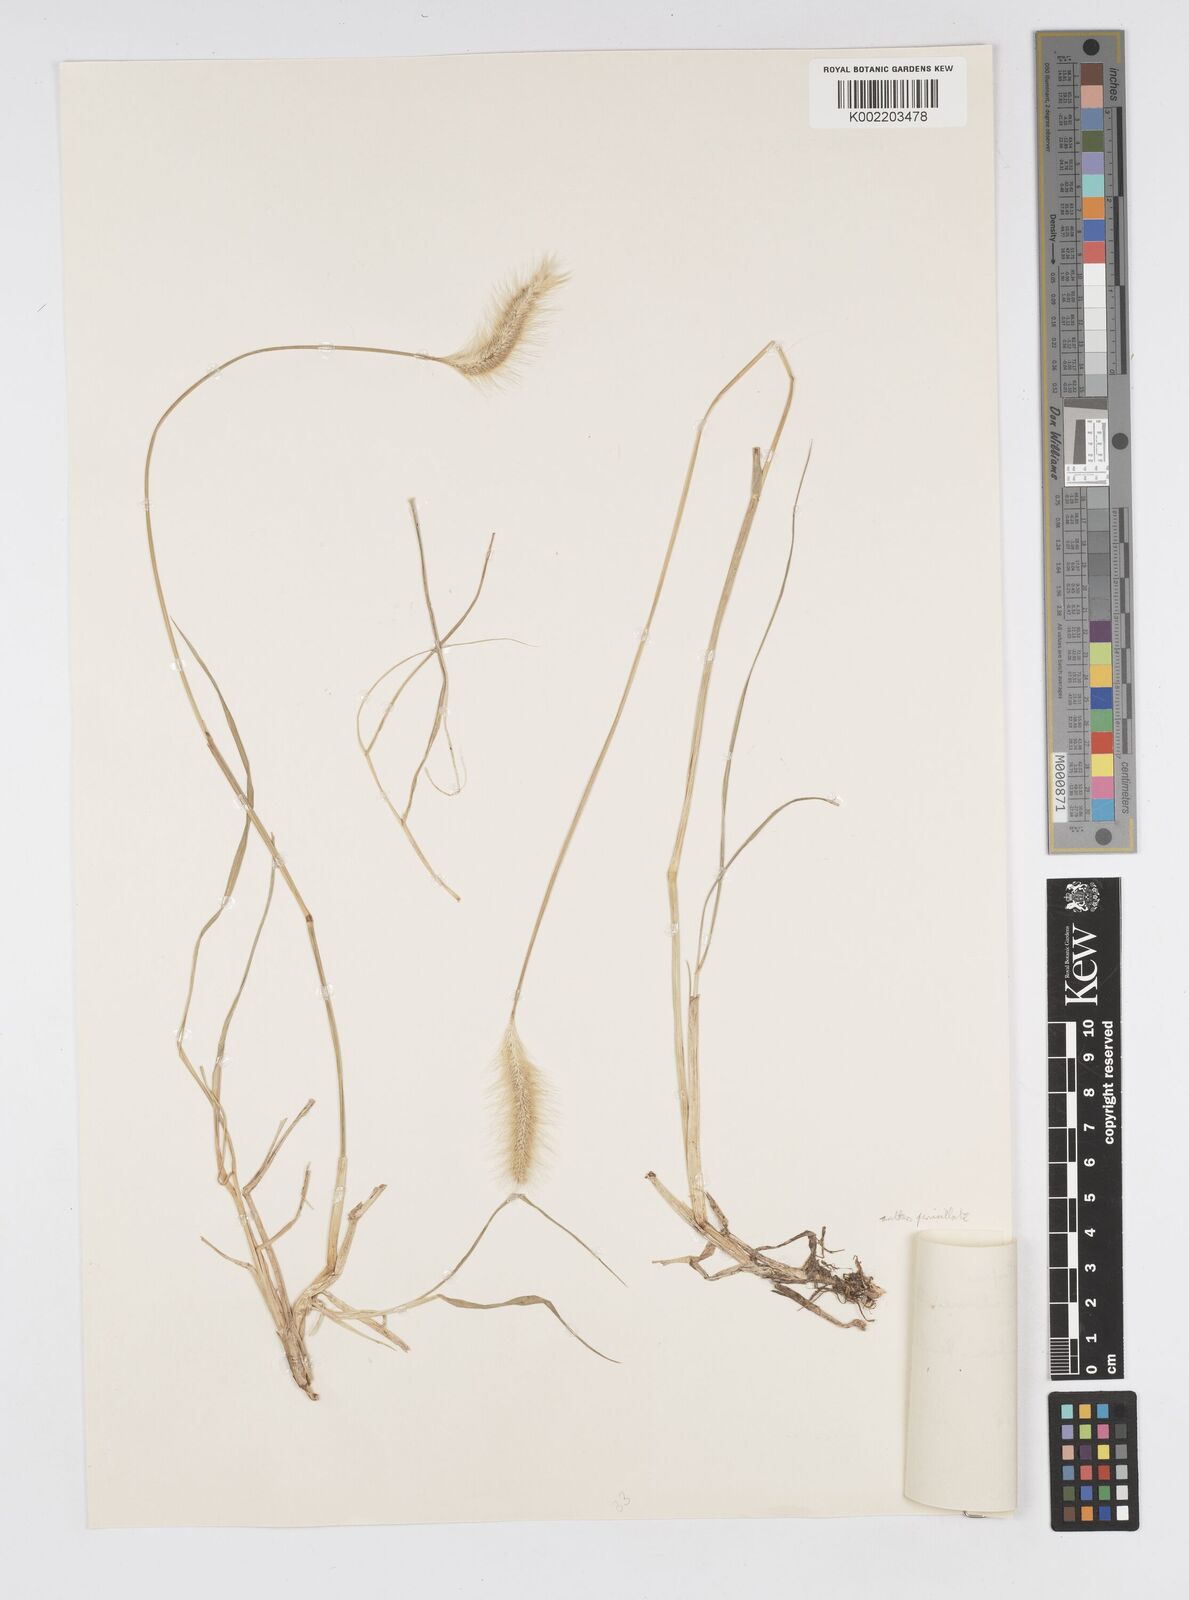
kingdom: Plantae
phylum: Tracheophyta
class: Liliopsida
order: Poales
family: Poaceae
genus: Cenchrus
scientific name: Cenchrus geniculatus
